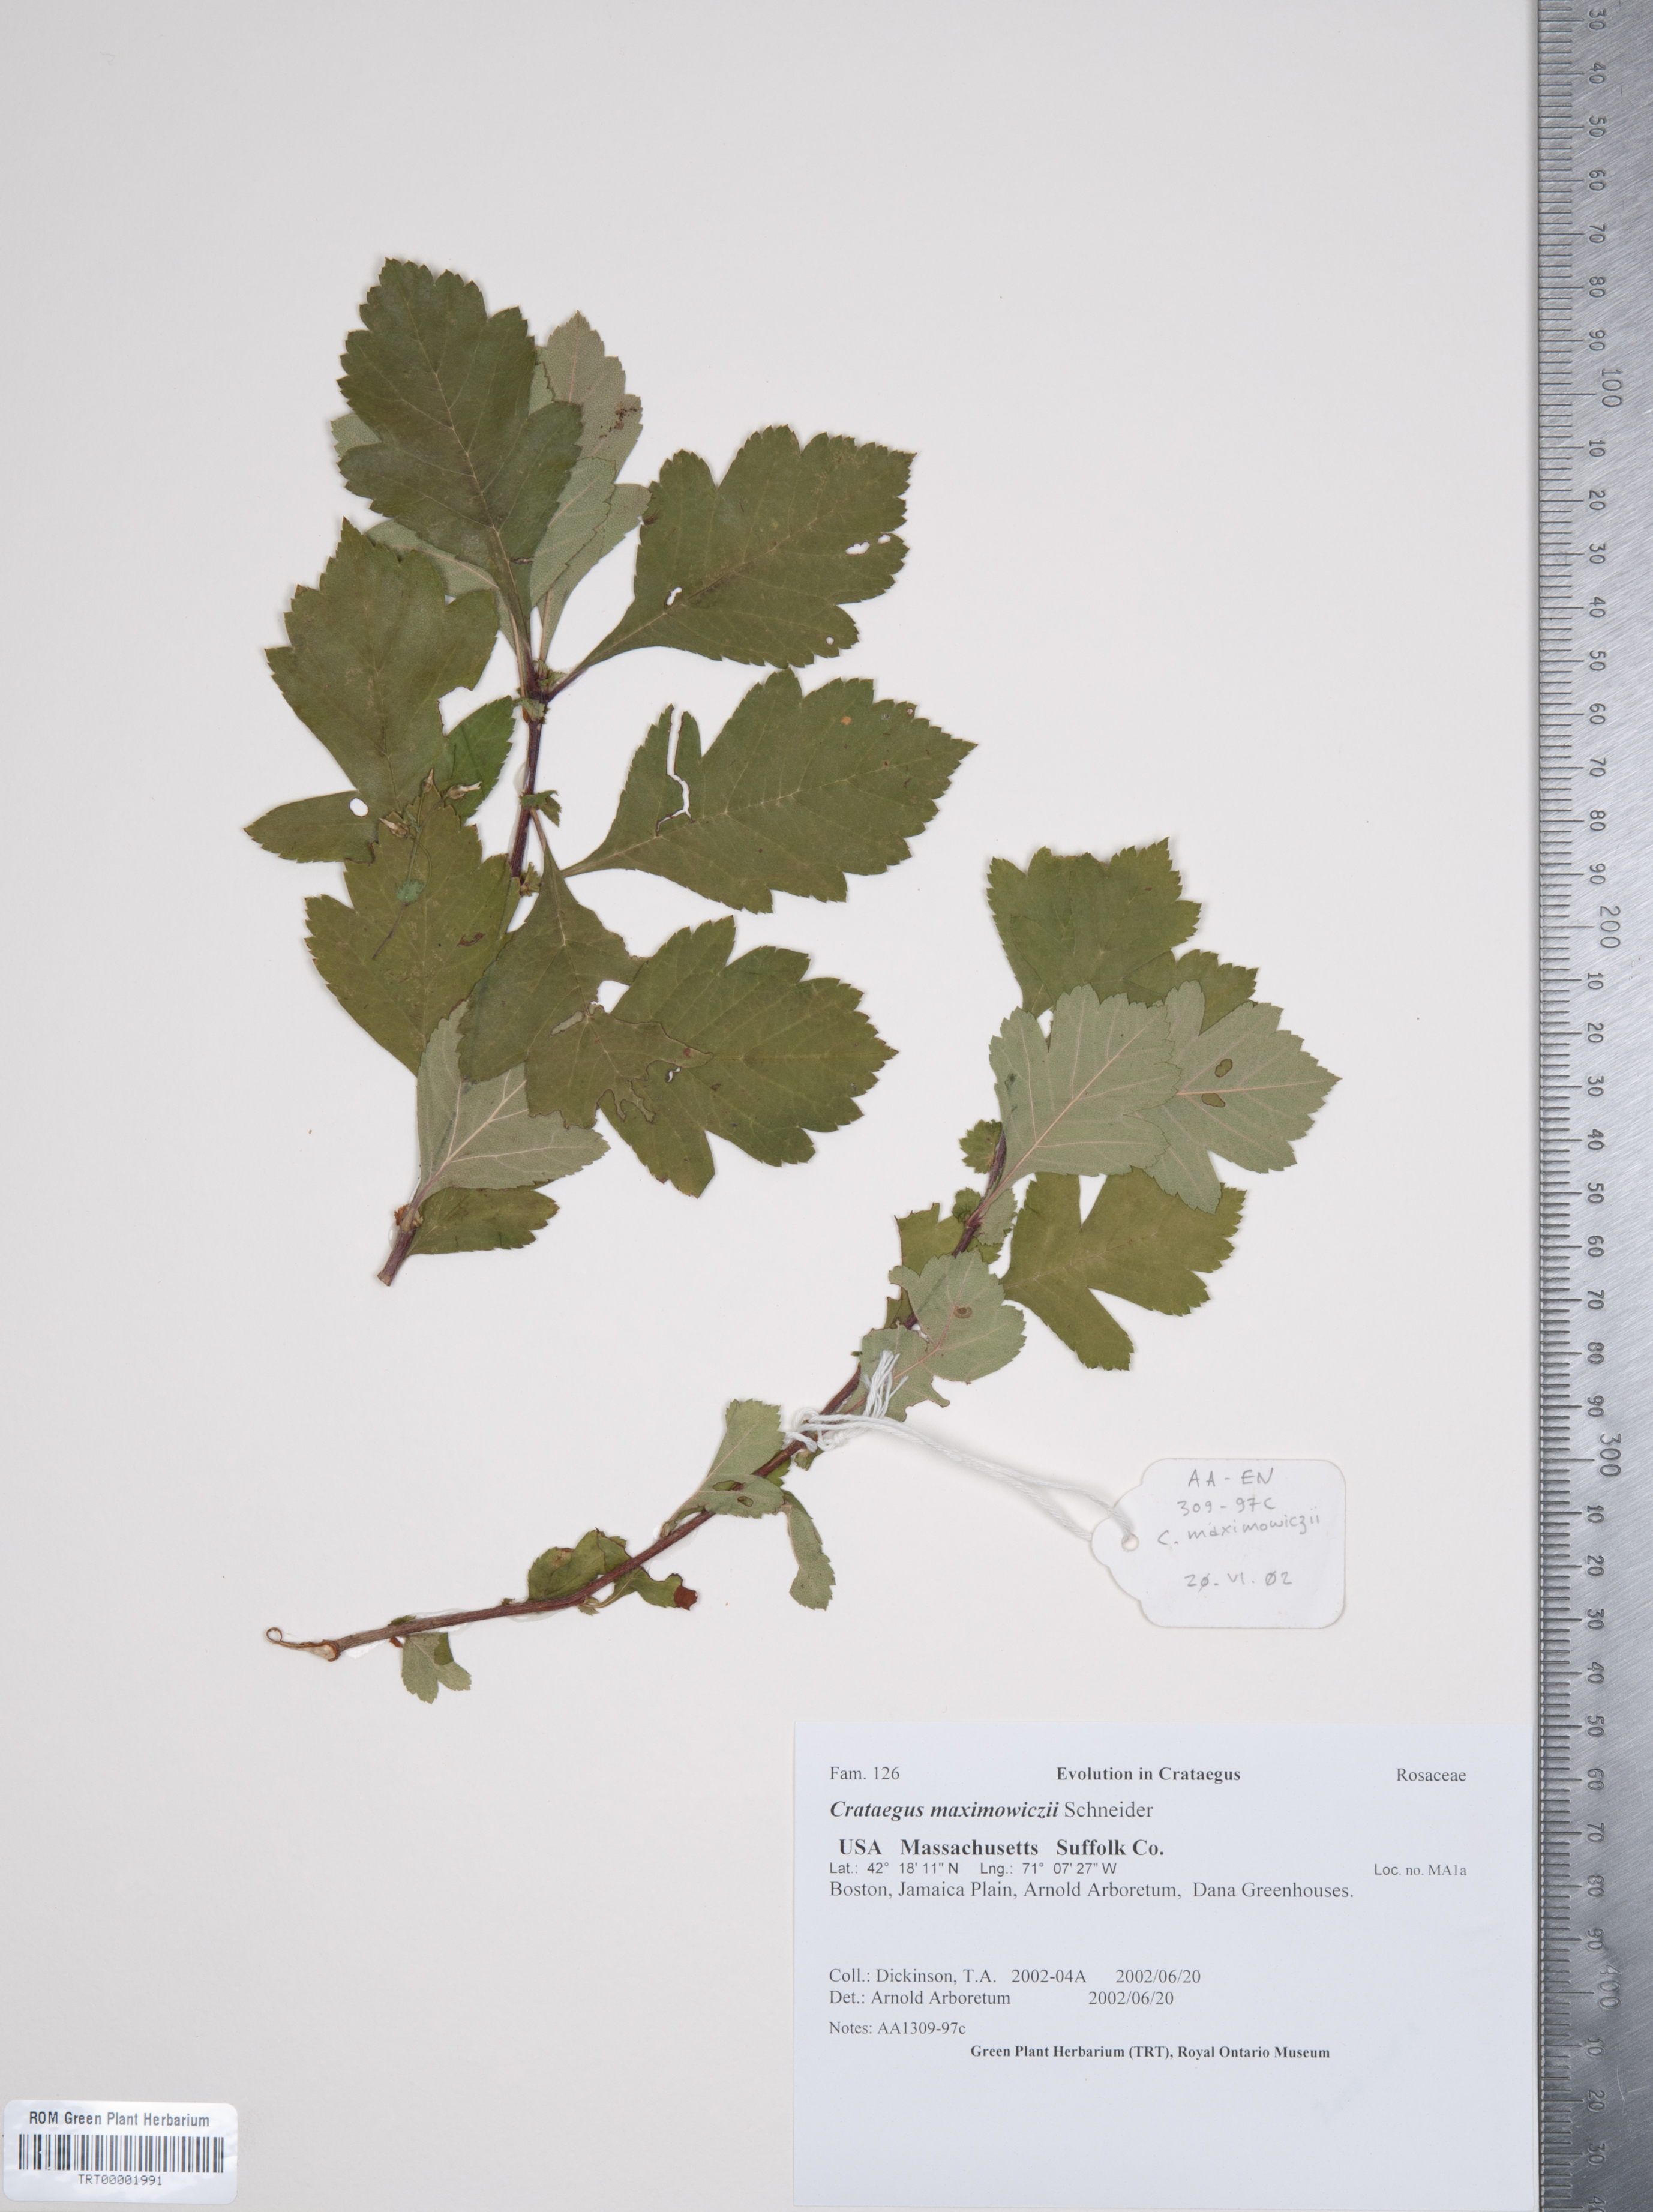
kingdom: Plantae
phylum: Tracheophyta
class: Magnoliopsida
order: Rosales
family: Rosaceae
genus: Crataegus
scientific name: Crataegus maximowiczii
